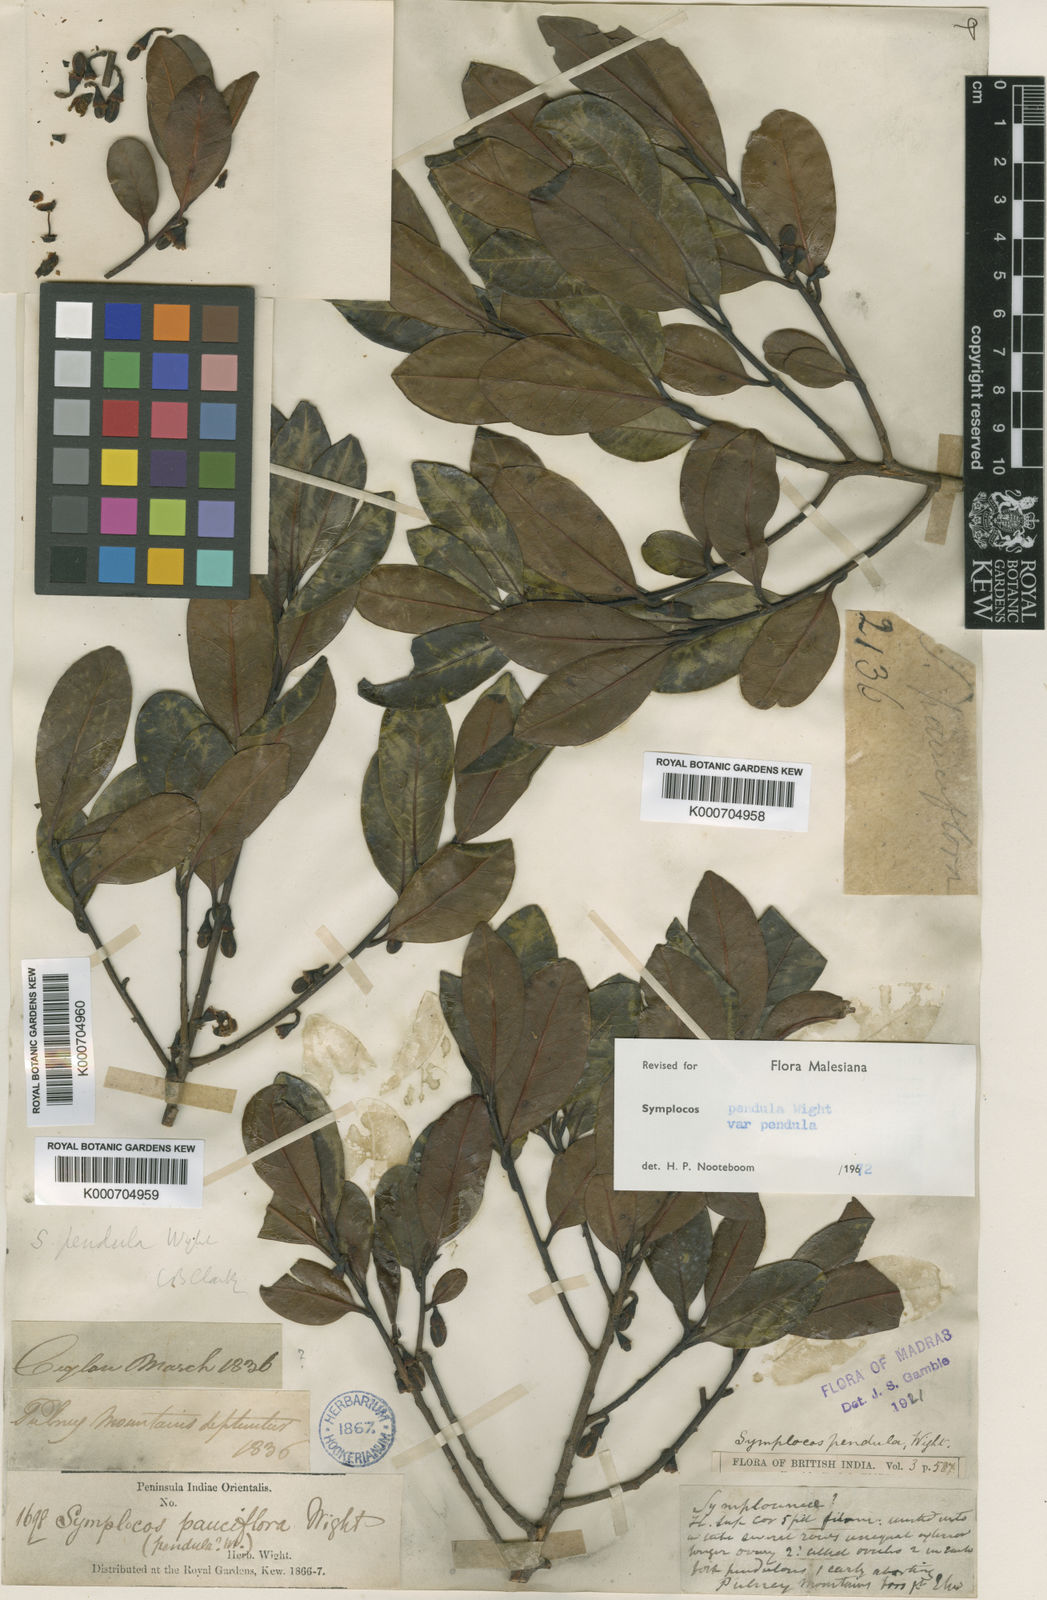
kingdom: Plantae
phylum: Tracheophyta
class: Magnoliopsida
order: Ericales
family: Symplocaceae
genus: Symplocos
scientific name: Symplocos pendula
